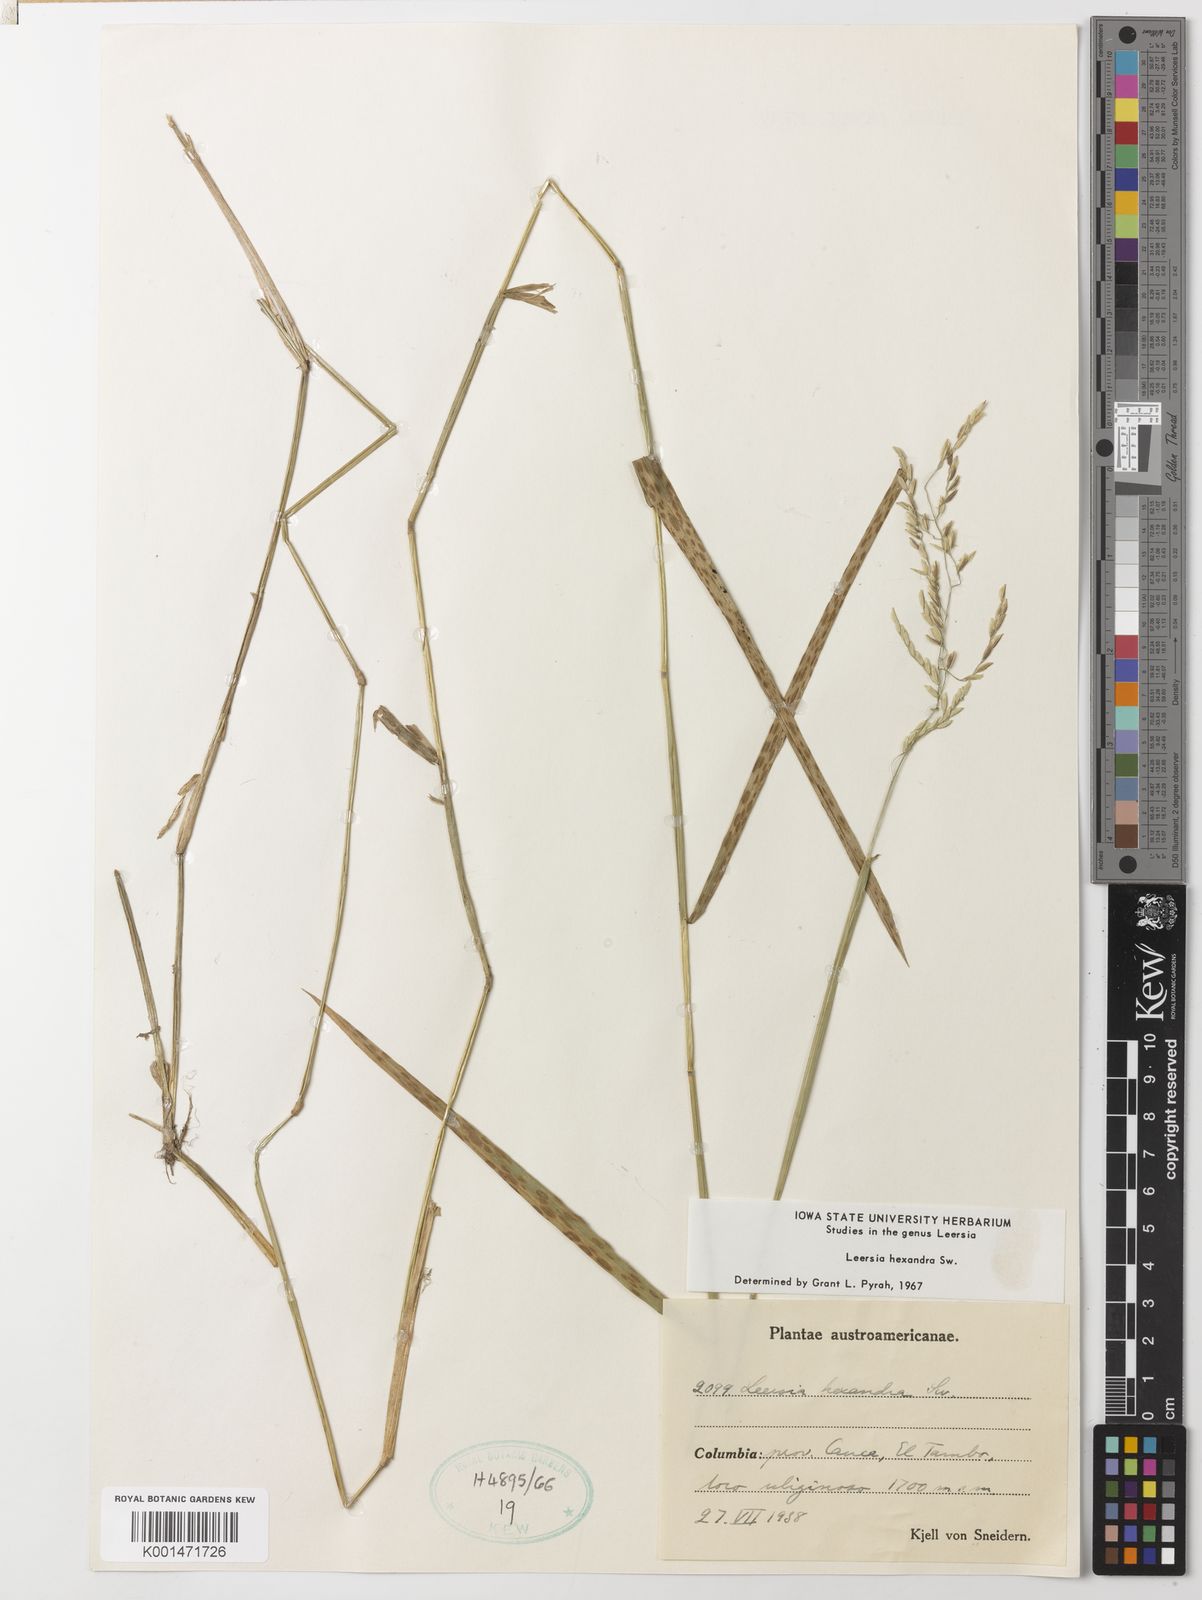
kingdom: Plantae
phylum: Tracheophyta
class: Liliopsida
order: Poales
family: Poaceae
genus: Leersia
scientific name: Leersia hexandra
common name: Southern cut grass
